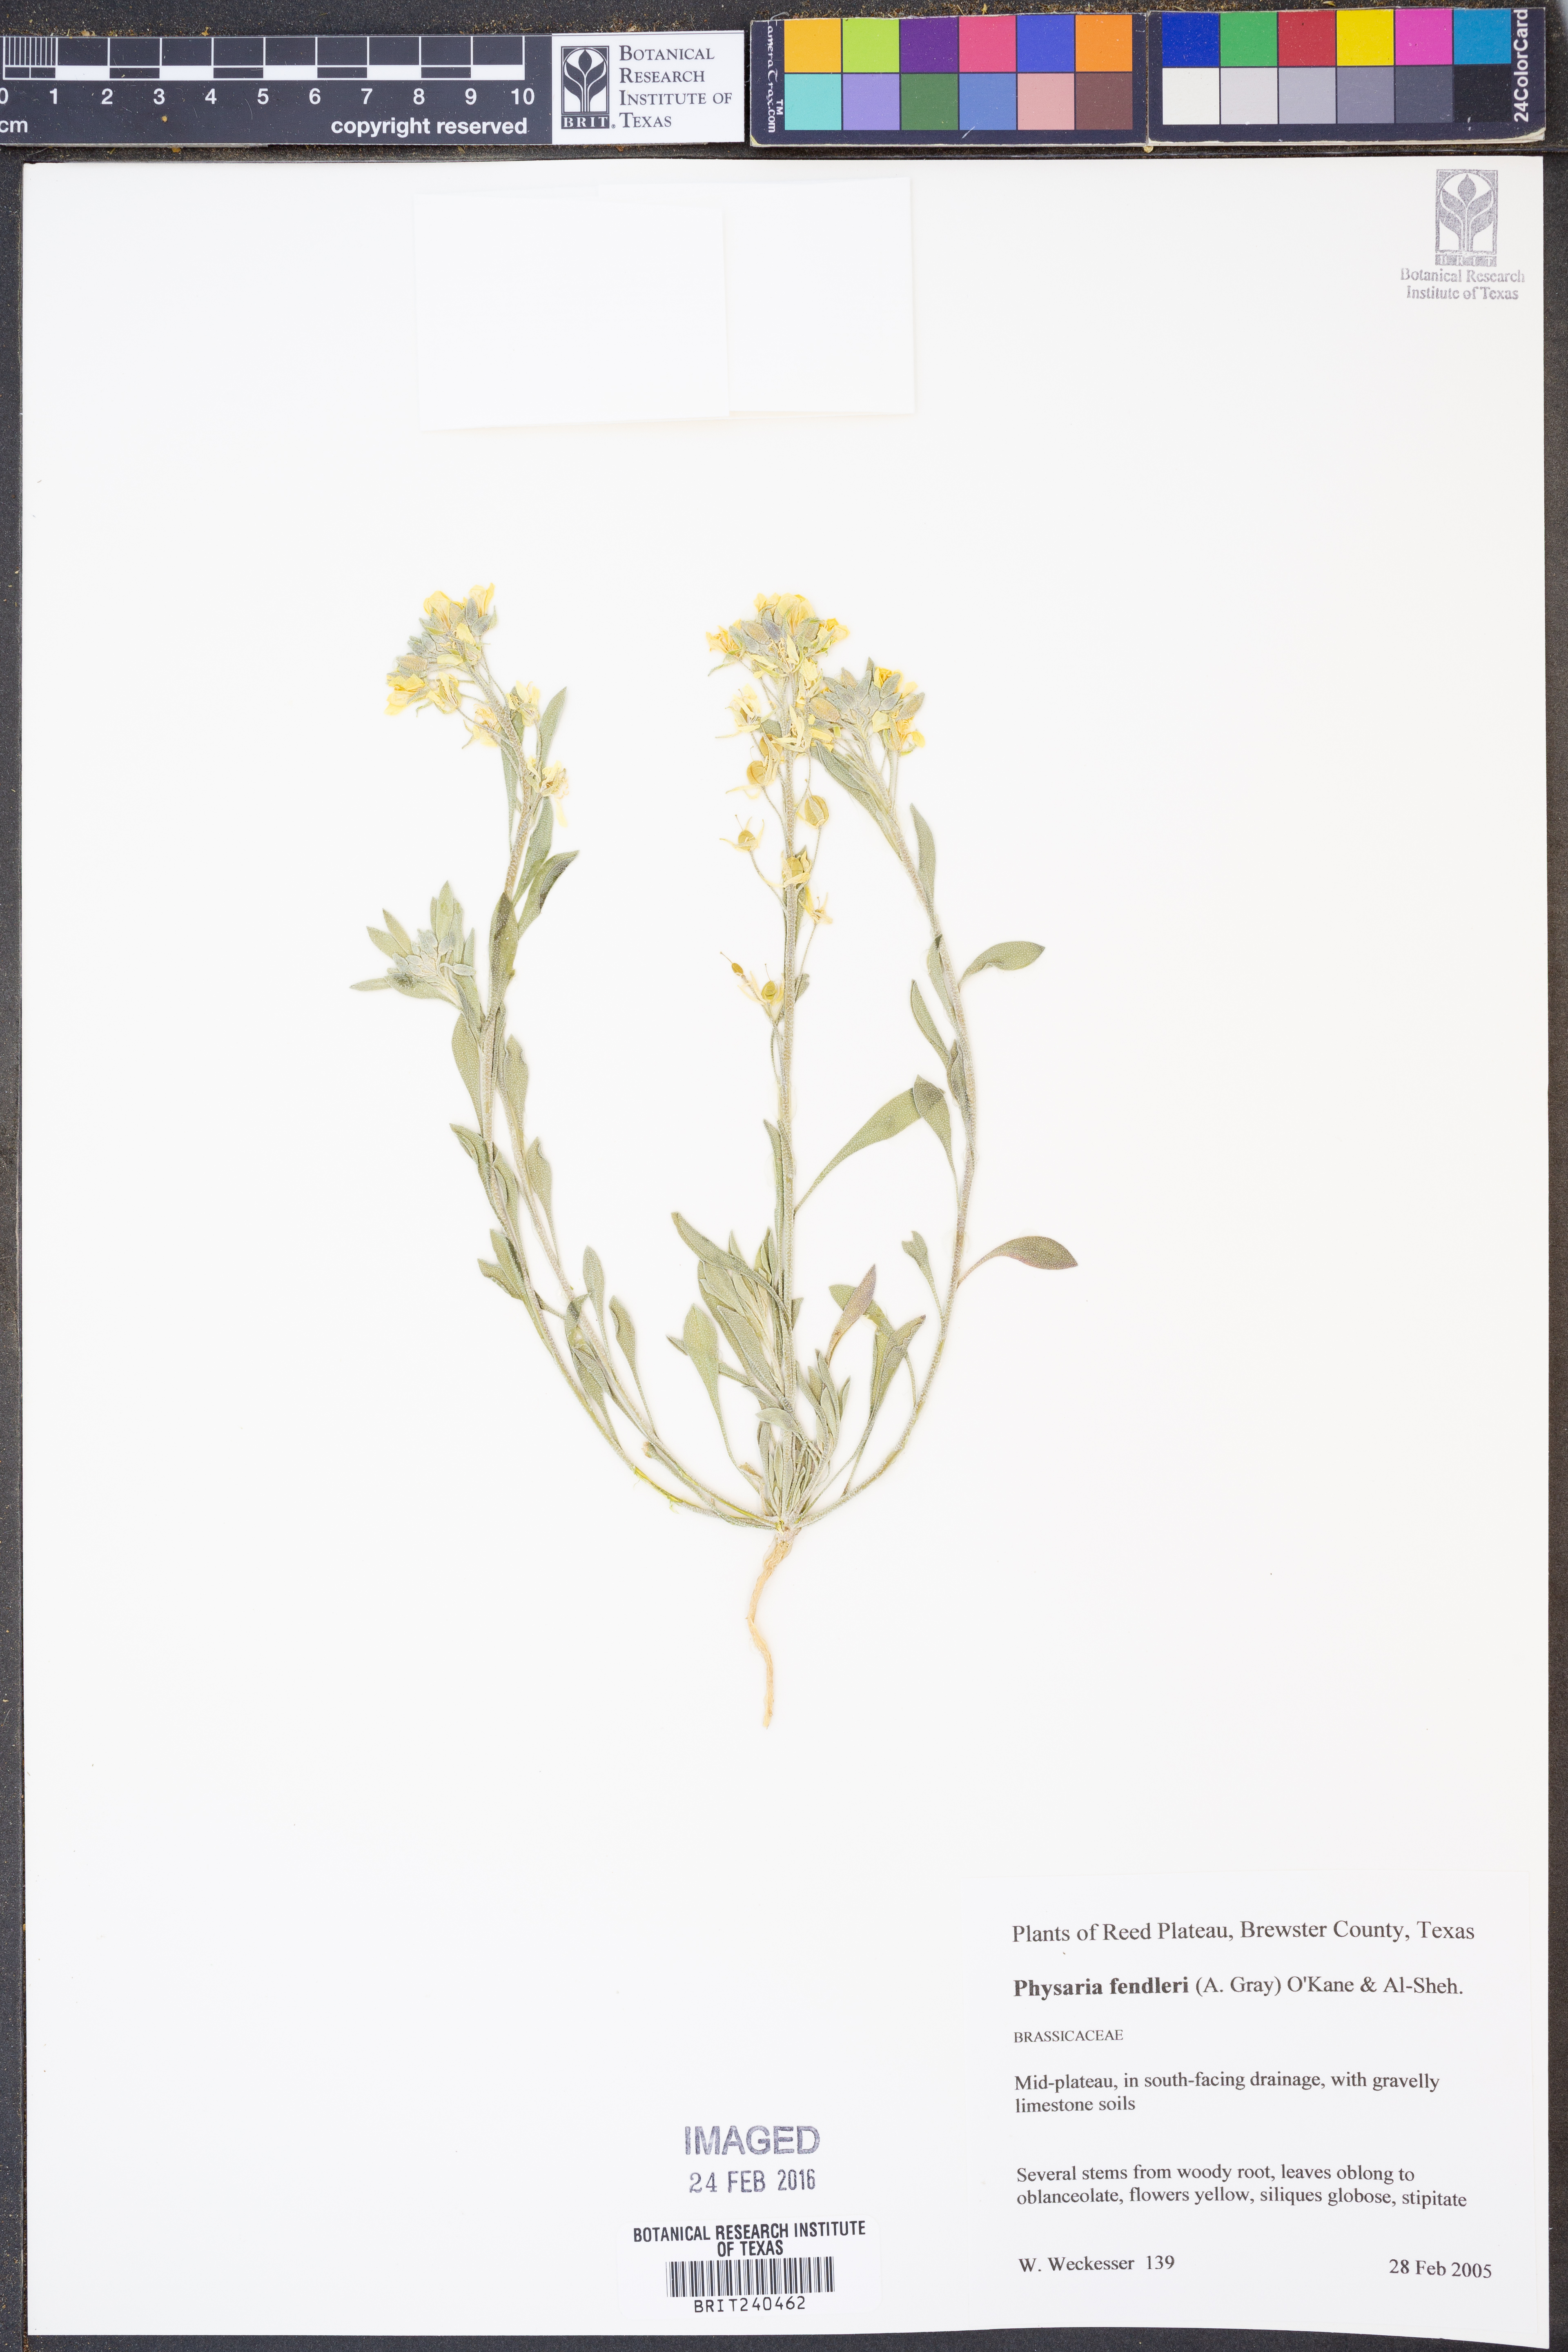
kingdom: Plantae
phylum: Tracheophyta
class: Magnoliopsida
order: Brassicales
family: Brassicaceae
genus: Physaria
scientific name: Physaria fendleri
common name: Fendler's bladderpod
